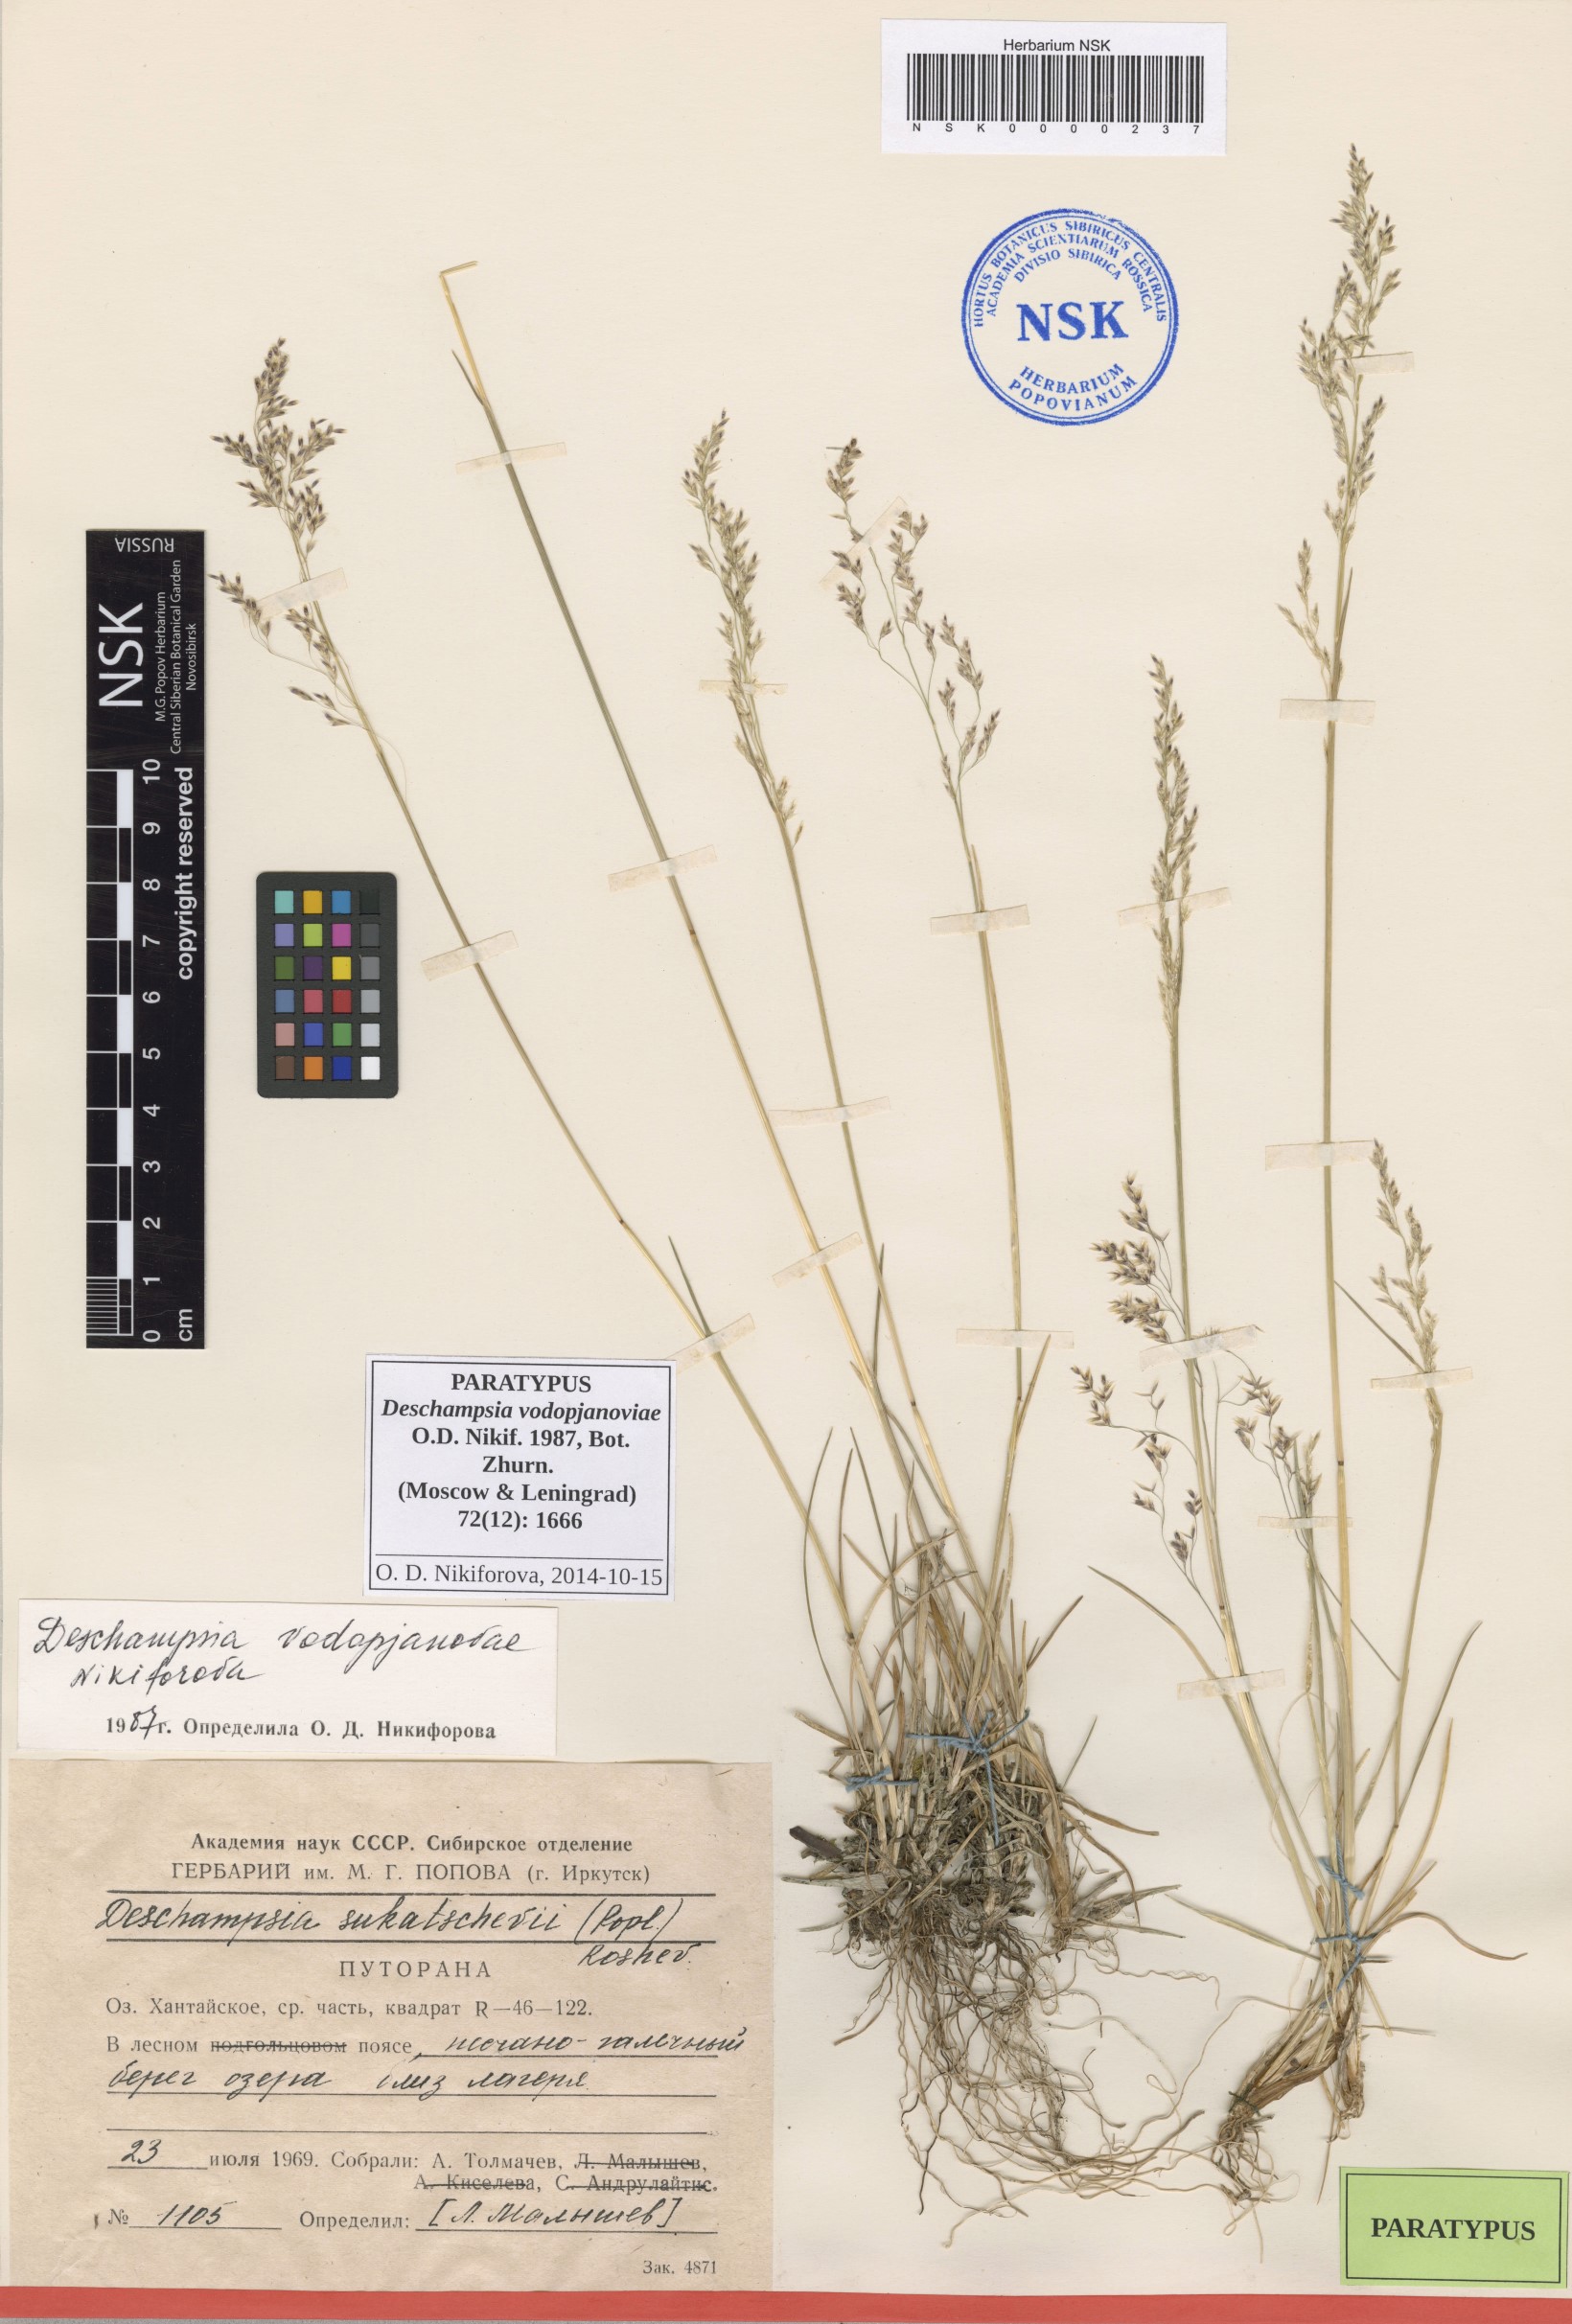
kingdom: Plantae
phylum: Tracheophyta
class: Liliopsida
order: Poales
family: Poaceae
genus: Deschampsia
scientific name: Deschampsia cespitosa
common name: Tufted hair-grass
